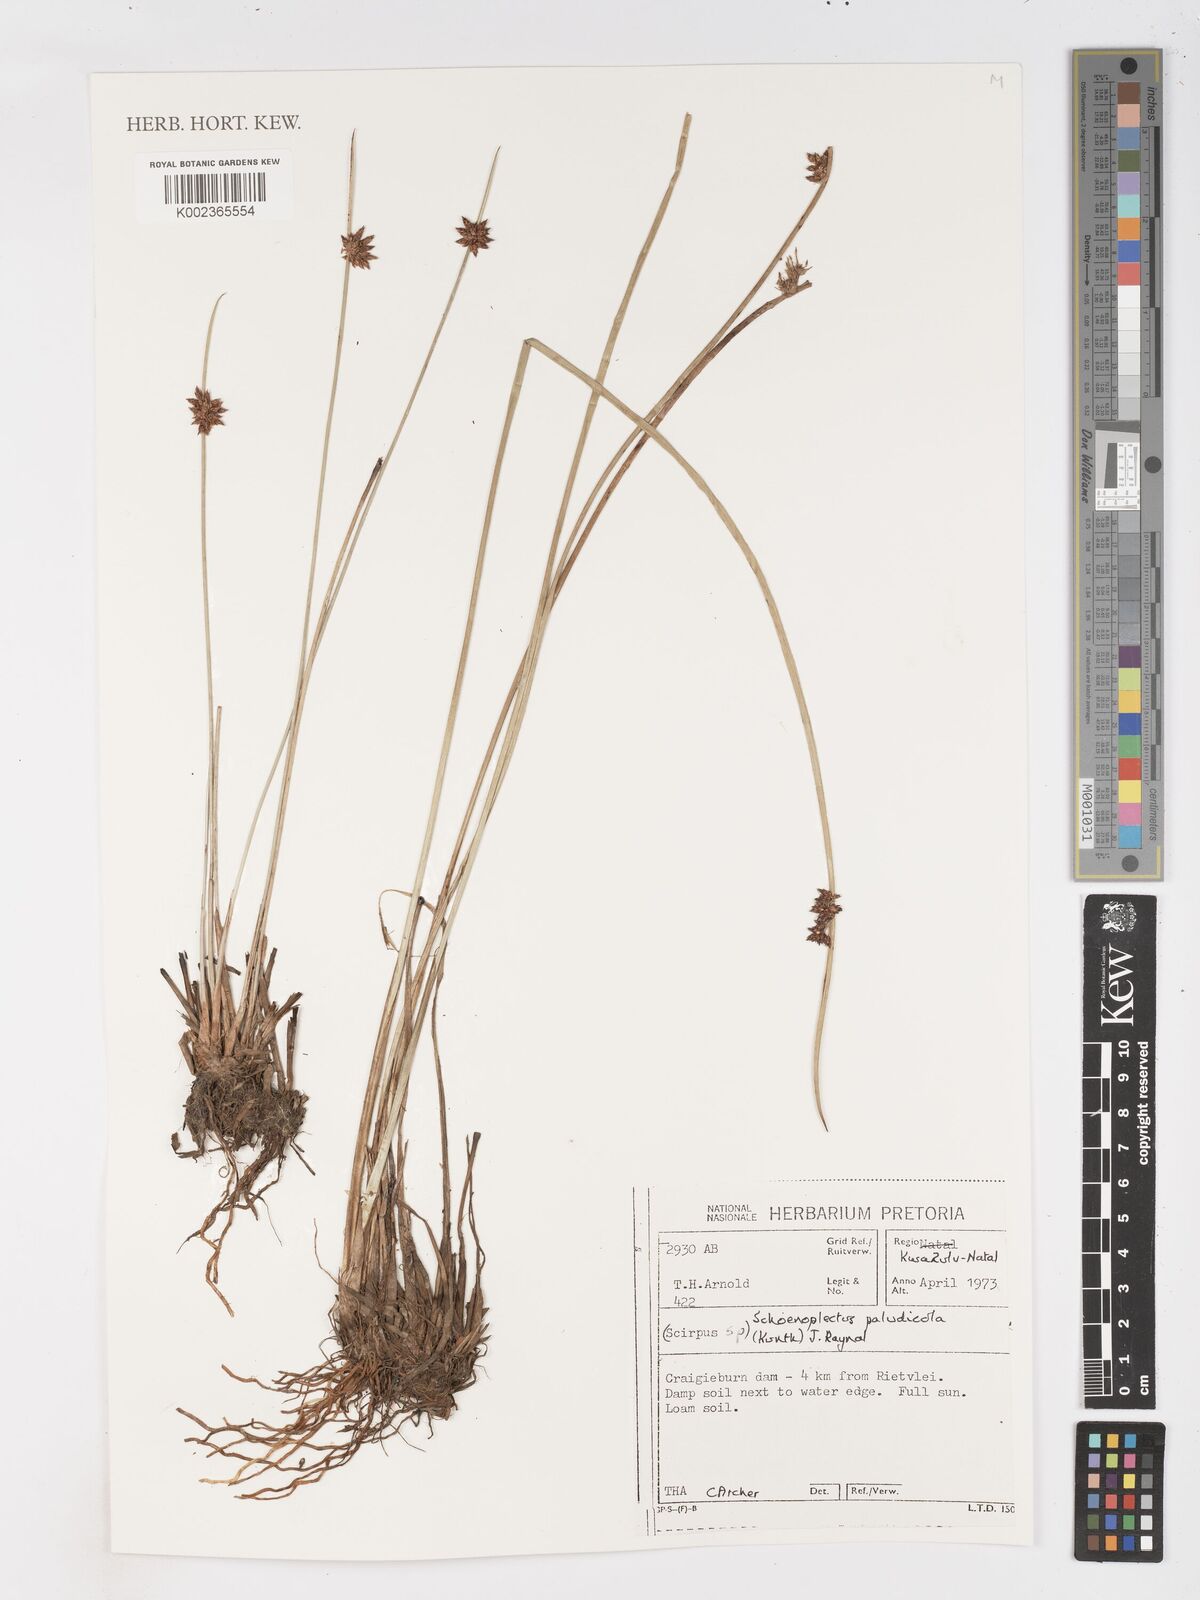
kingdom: Plantae
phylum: Tracheophyta
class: Liliopsida
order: Poales
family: Cyperaceae
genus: Schoenoplectiella
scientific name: Schoenoplectiella paludicola
